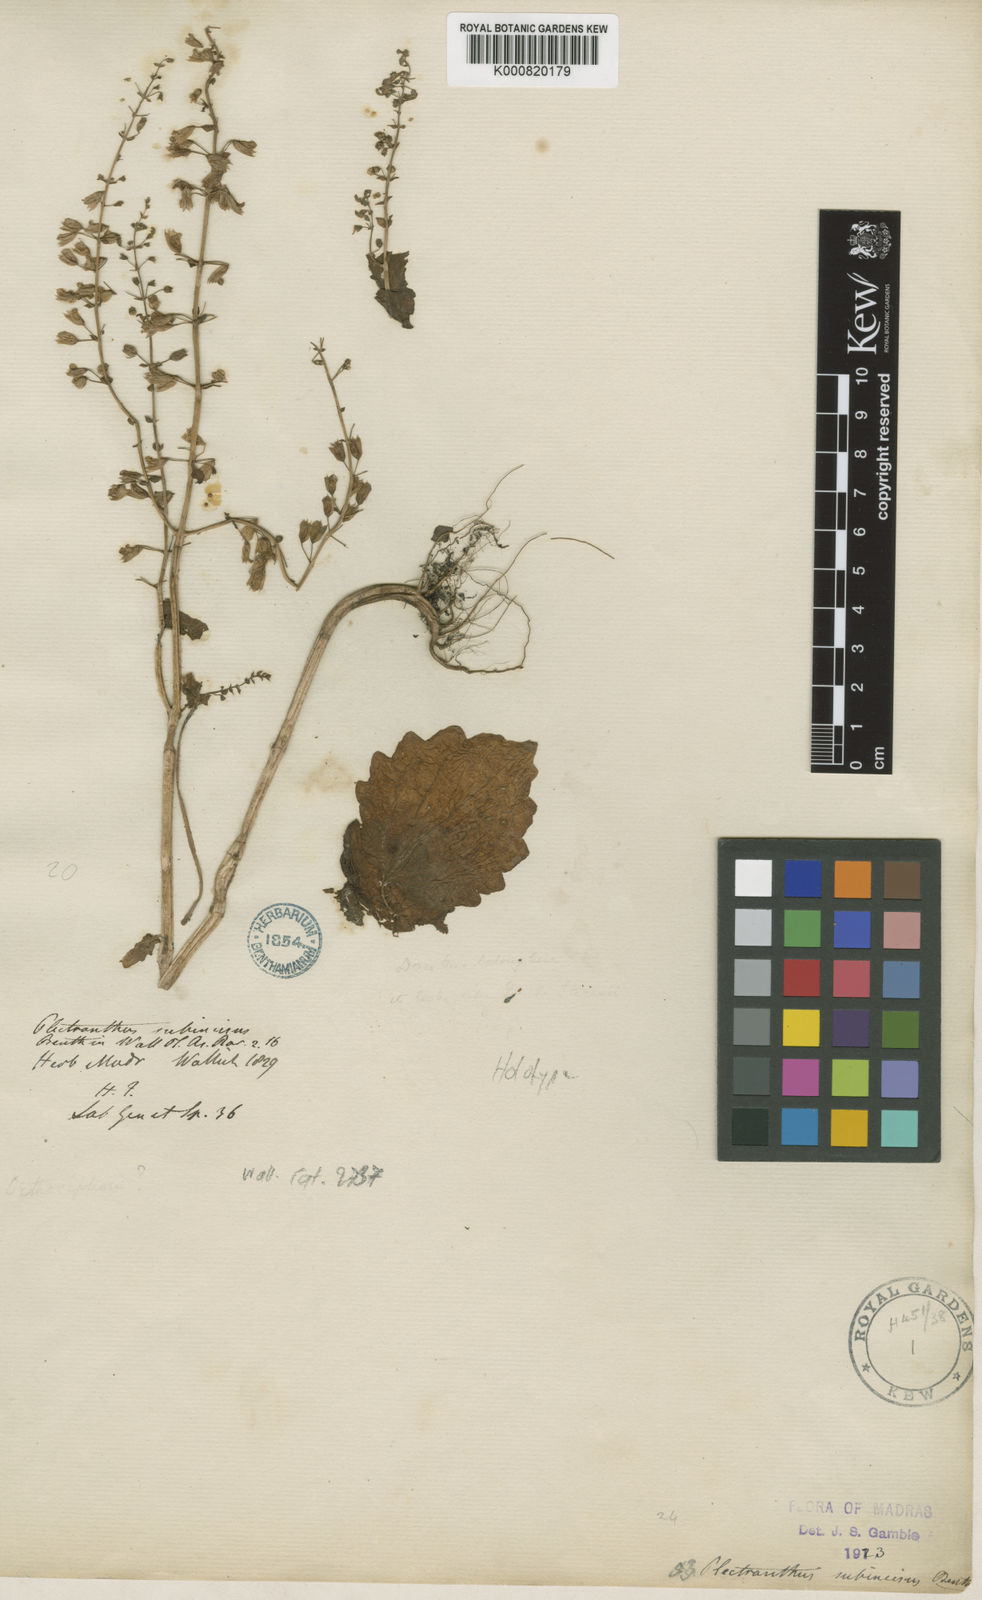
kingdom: Plantae
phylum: Tracheophyta
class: Magnoliopsida
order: Lamiales
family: Lamiaceae
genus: Equilabium
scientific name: Equilabium subincisum
